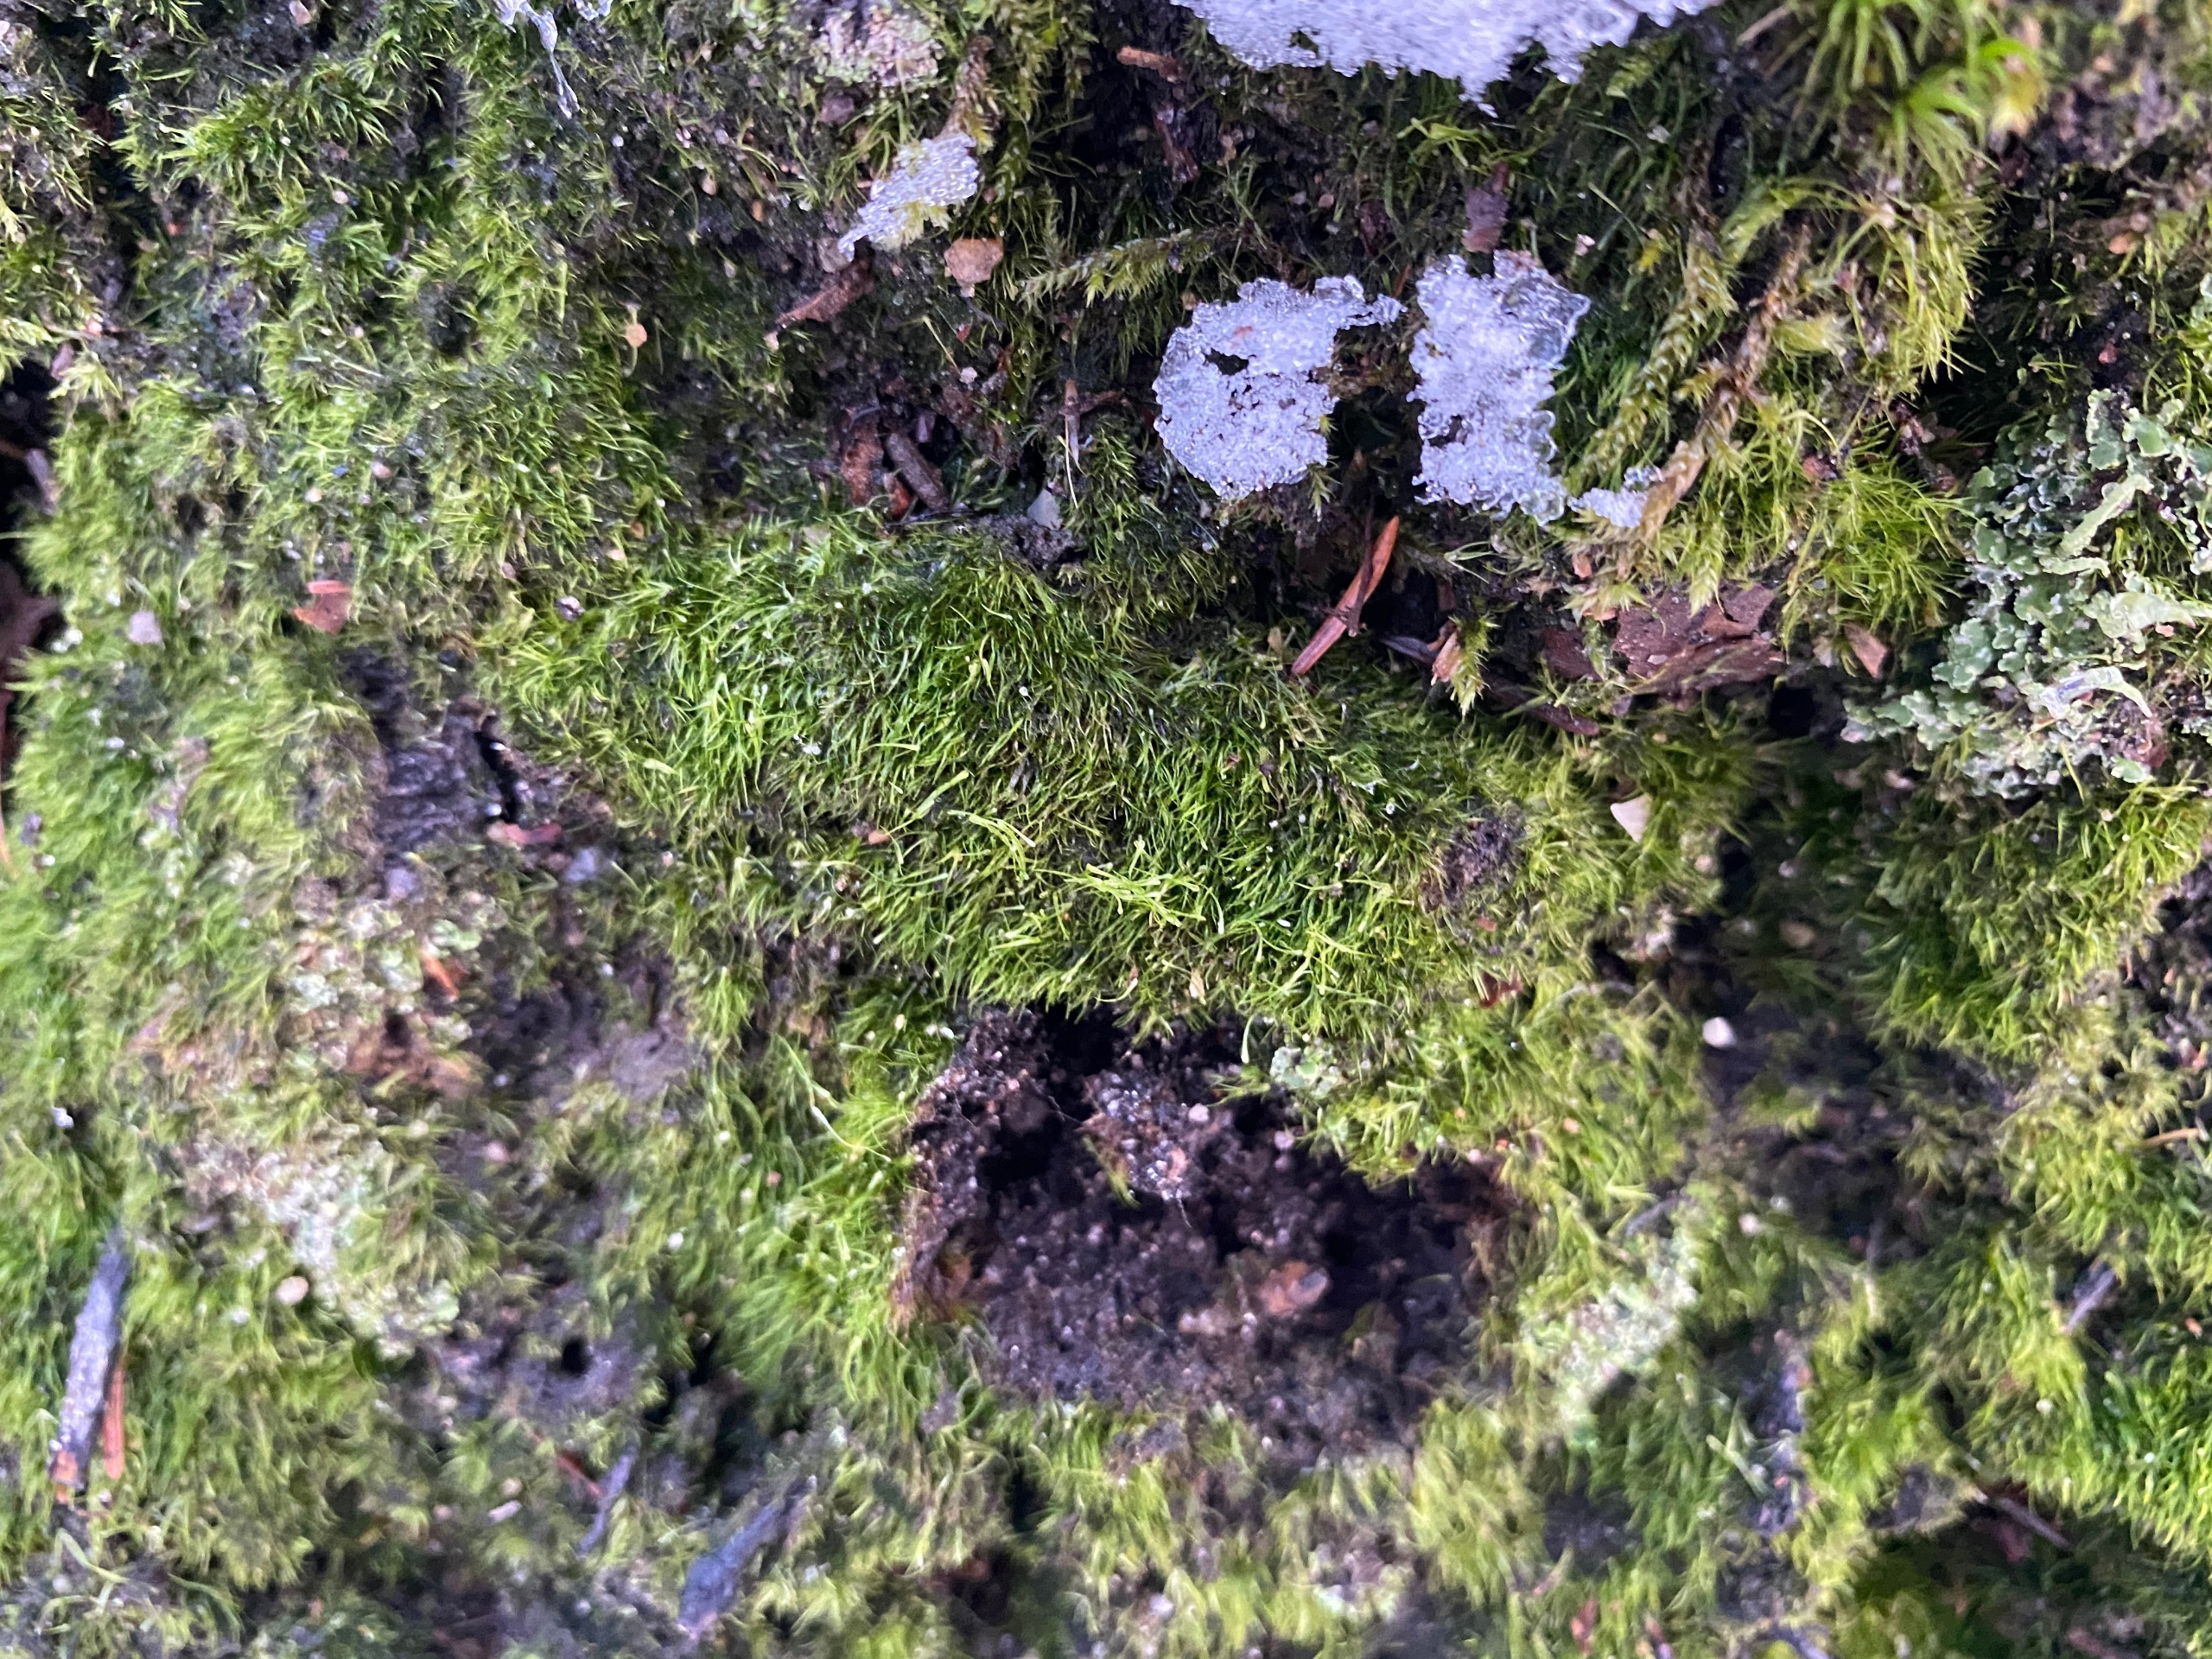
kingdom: Plantae
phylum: Bryophyta
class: Bryopsida
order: Dicranales
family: Leucobryaceae
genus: Campylopus
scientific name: Campylopus pyriformis
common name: Almindelig bredribbe
